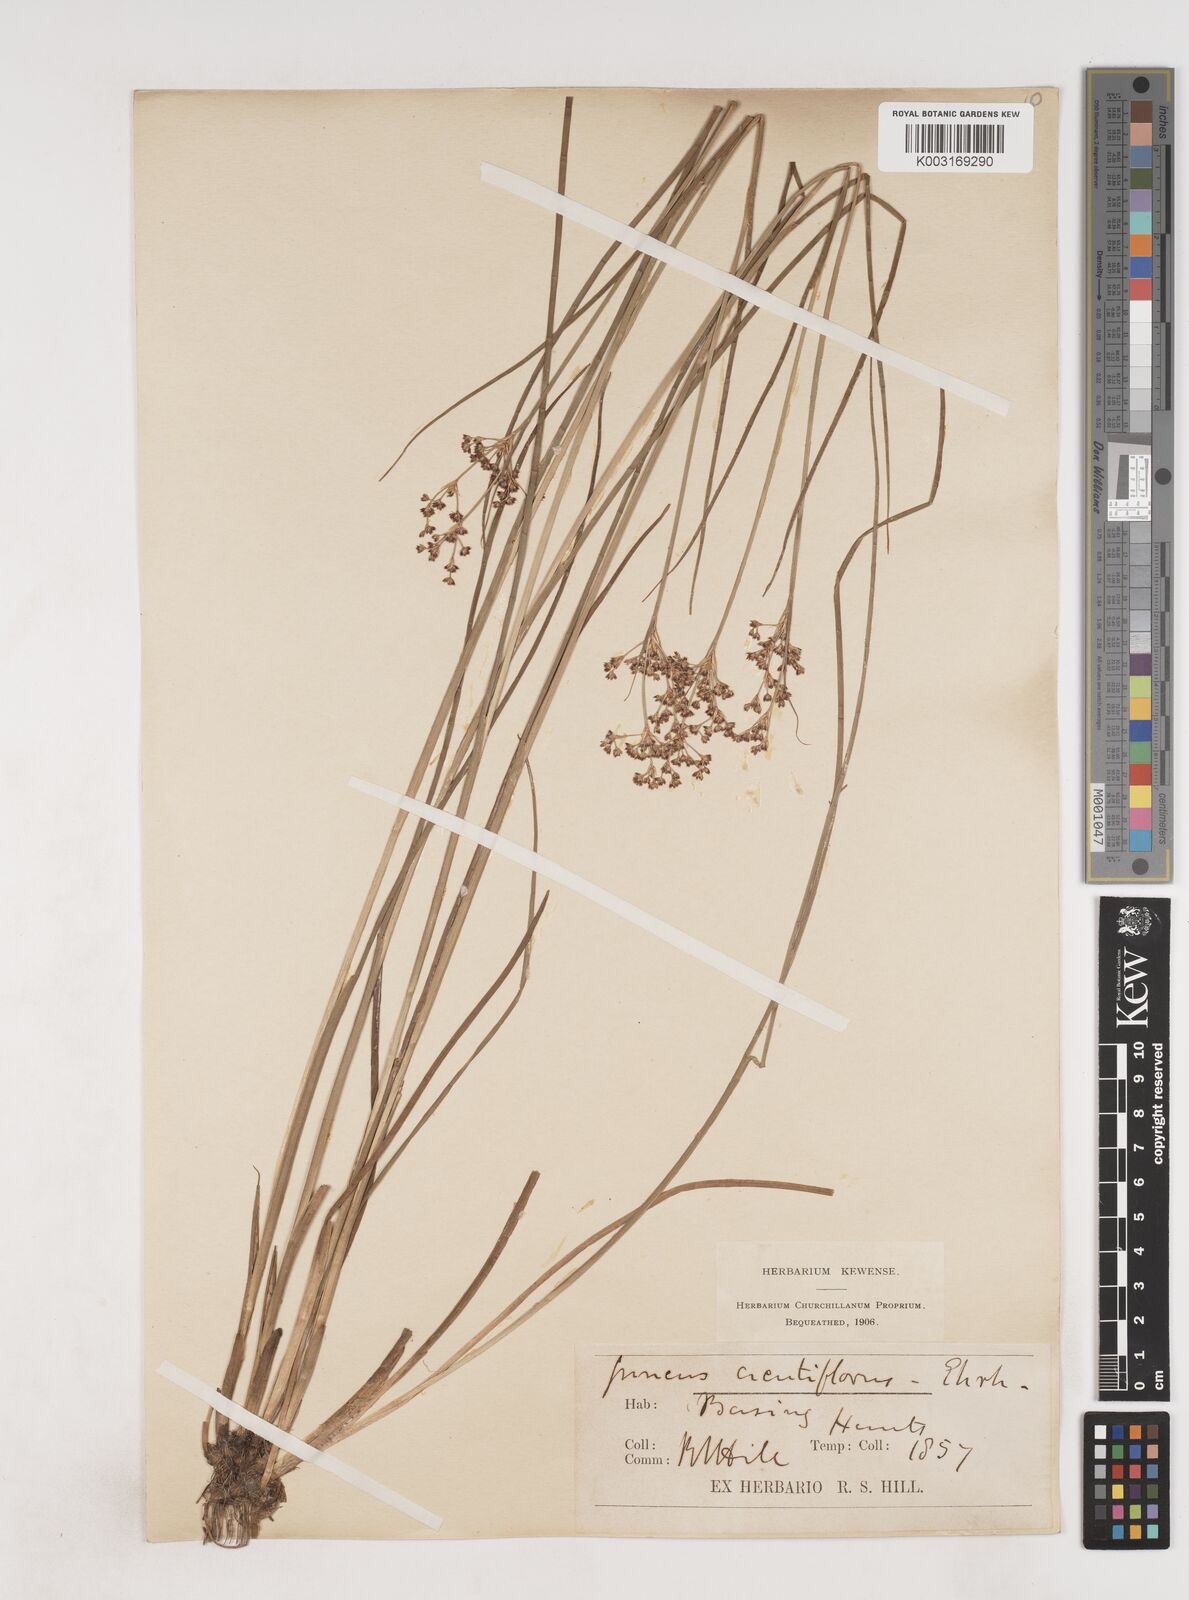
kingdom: Plantae
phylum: Tracheophyta
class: Liliopsida
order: Poales
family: Juncaceae
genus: Juncus
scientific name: Juncus acutiflorus
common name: Sharp-flowered rush
